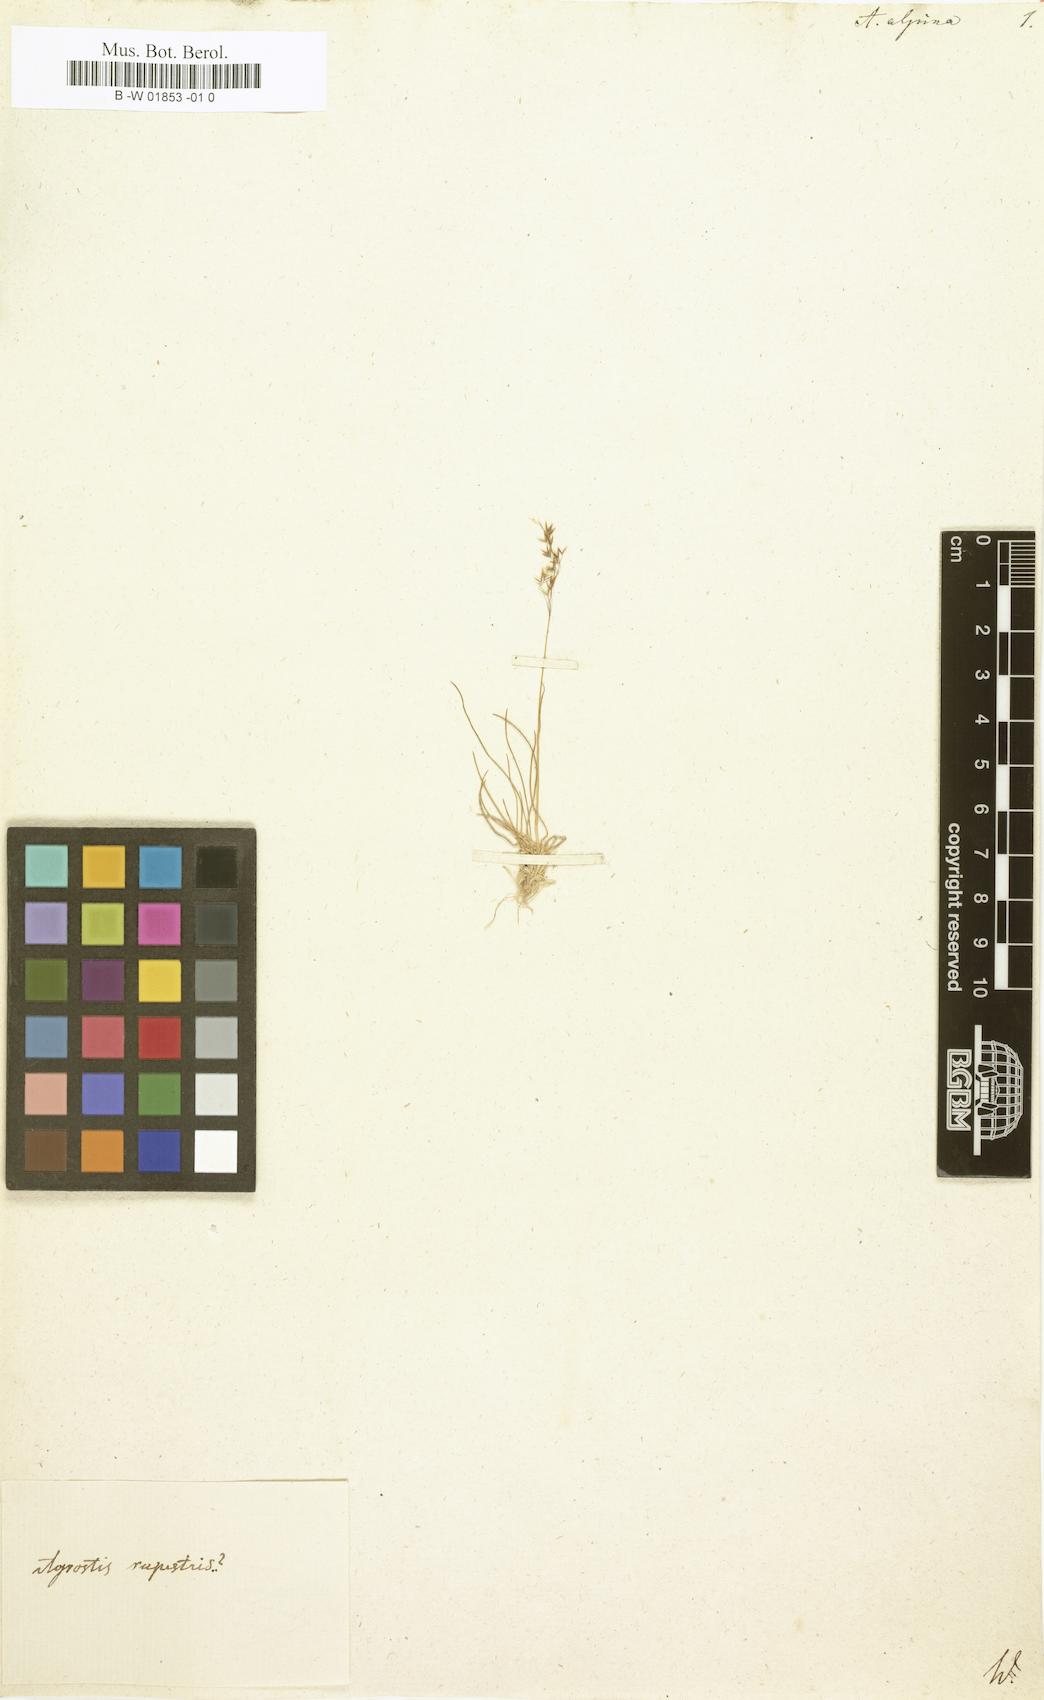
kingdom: Plantae
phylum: Tracheophyta
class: Liliopsida
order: Poales
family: Poaceae
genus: Deschampsia
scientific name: Deschampsia cespitosa
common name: Tufted hair-grass
